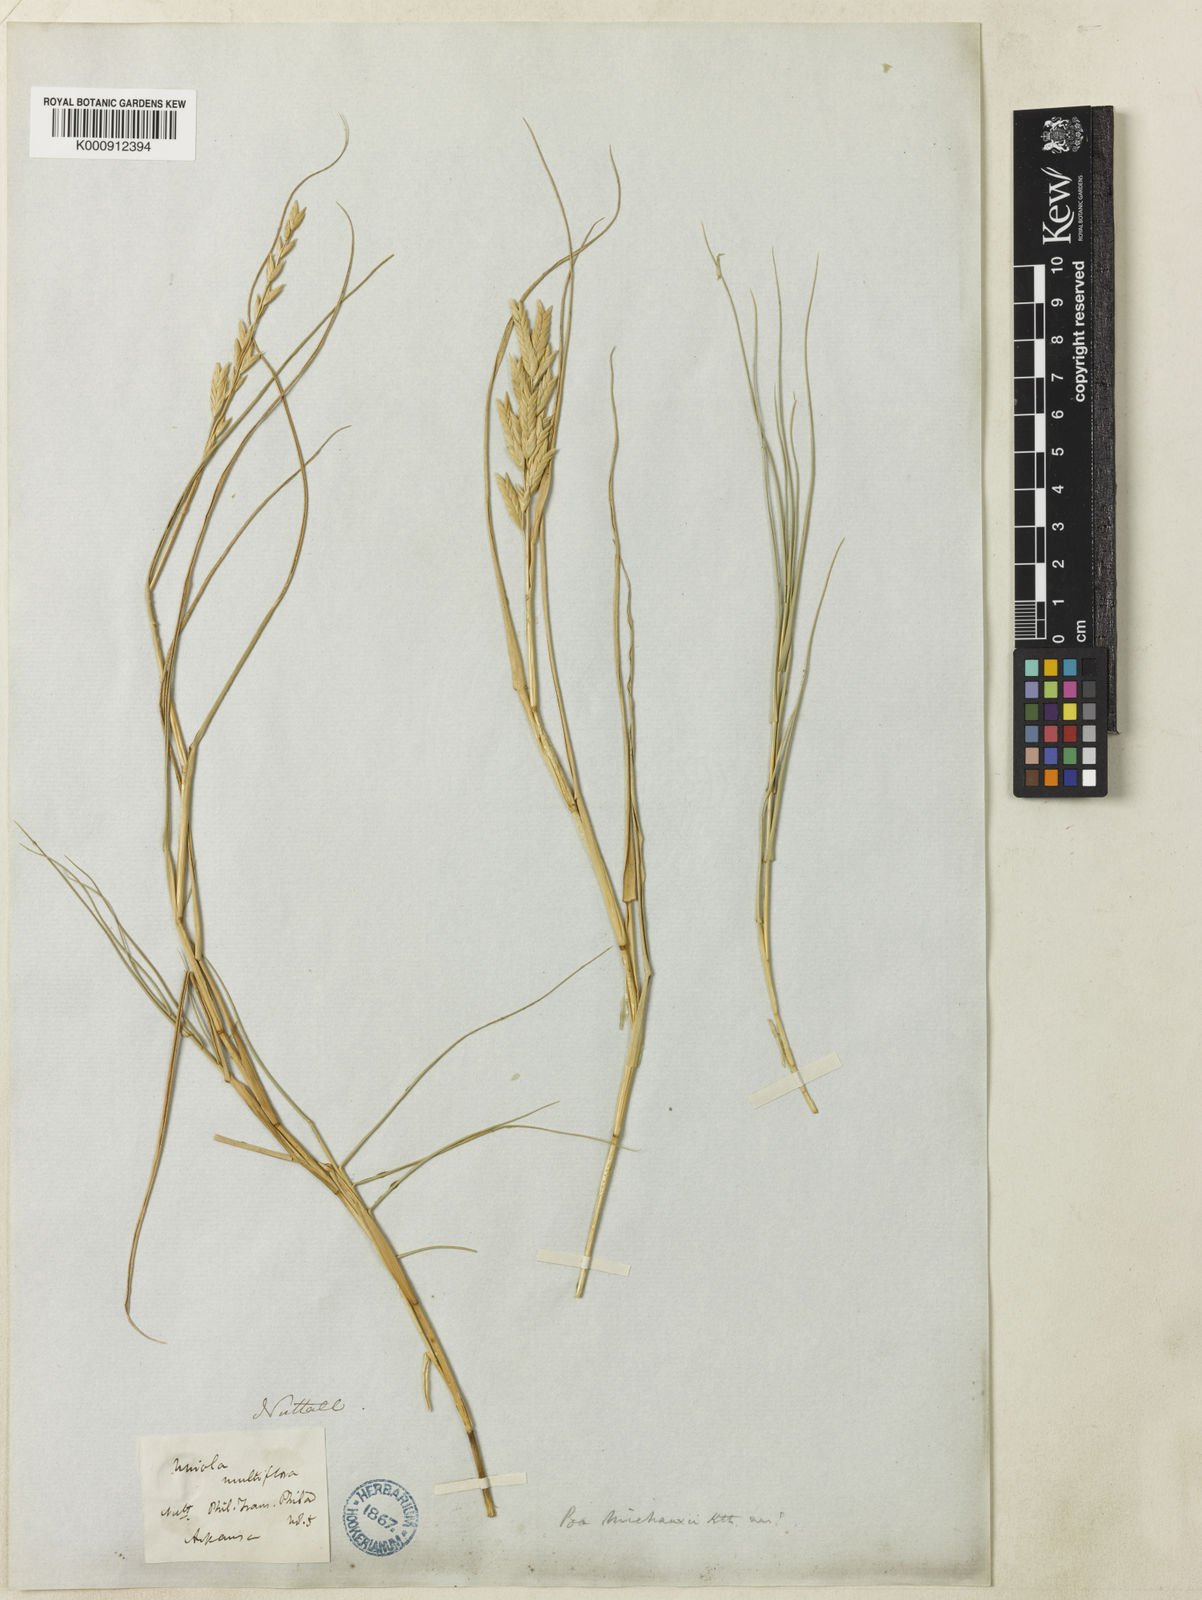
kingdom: Plantae
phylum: Tracheophyta
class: Liliopsida
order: Poales
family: Poaceae
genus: Distichlis
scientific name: Distichlis spicata
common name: Saltgrass
